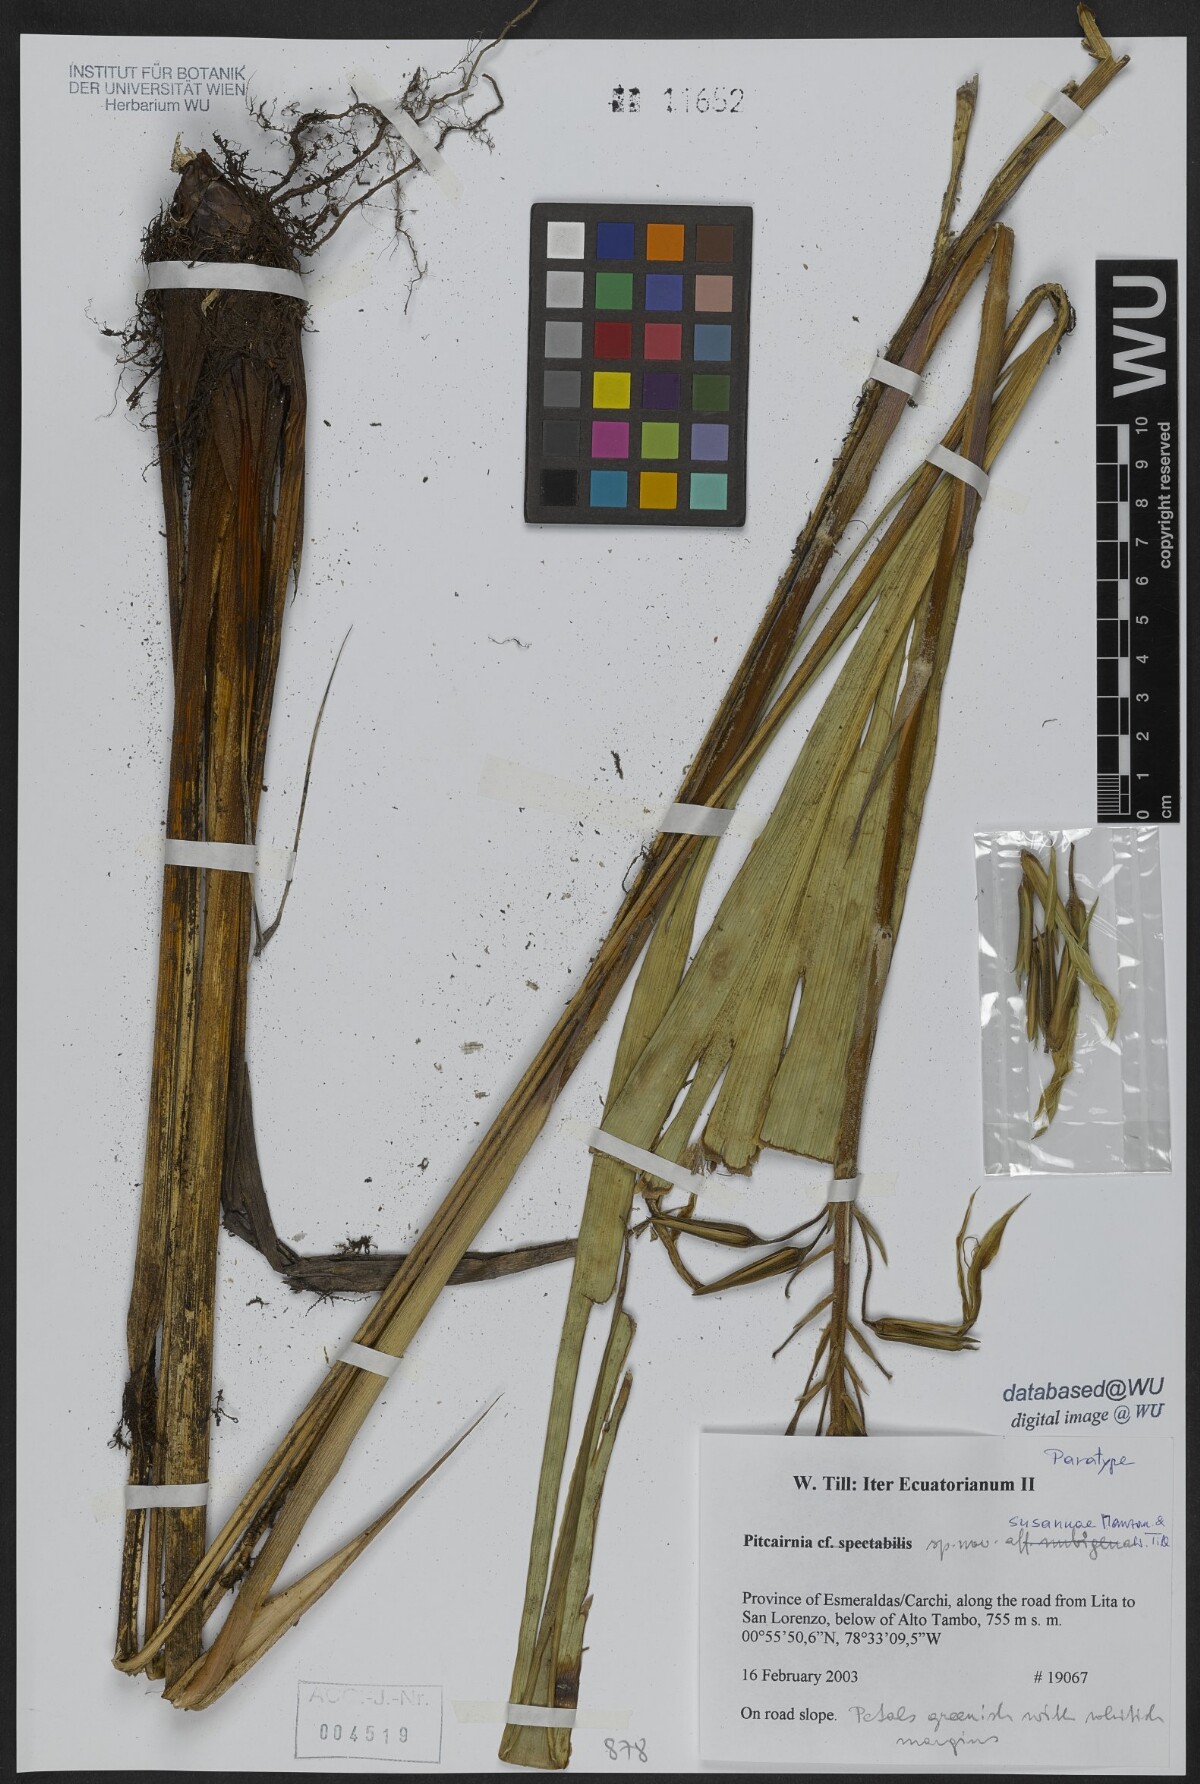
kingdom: Plantae
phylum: Tracheophyta
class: Liliopsida
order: Poales
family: Bromeliaceae
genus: Pitcairnia
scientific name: Pitcairnia susannae
